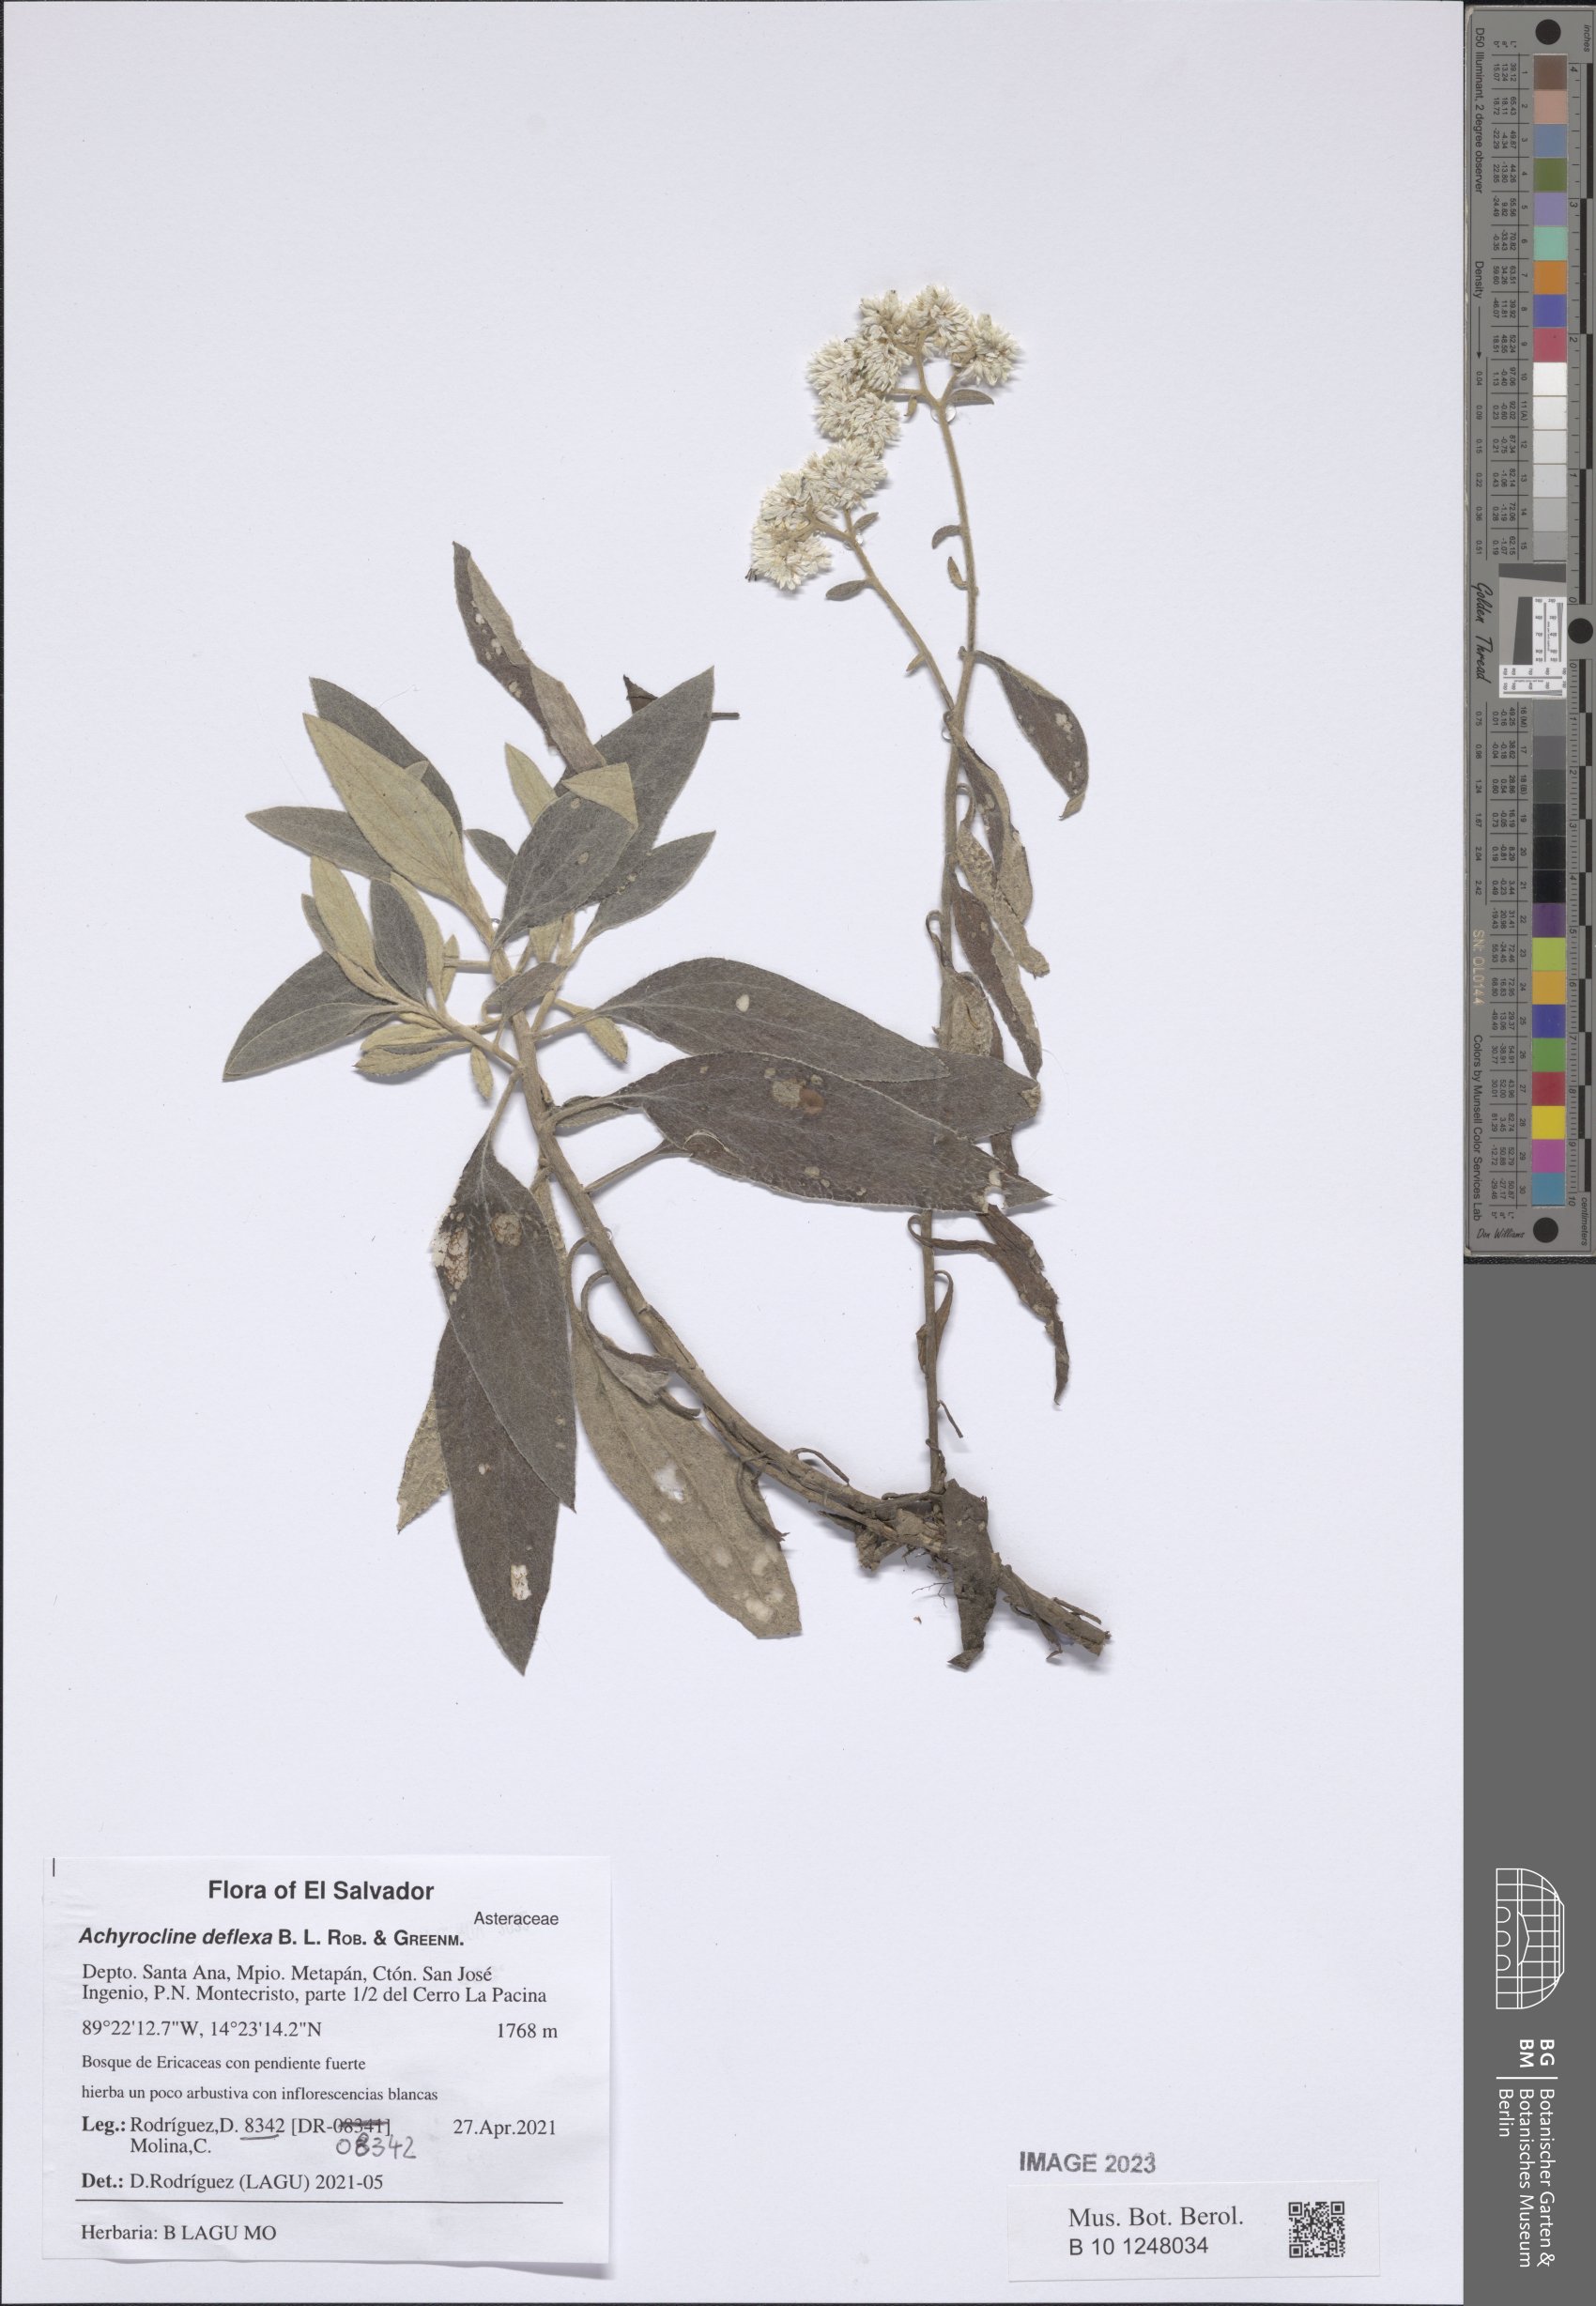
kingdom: Plantae
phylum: Tracheophyta
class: Magnoliopsida
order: Asterales
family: Asteraceae
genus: Achyrocline
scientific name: Achyrocline deflexa
